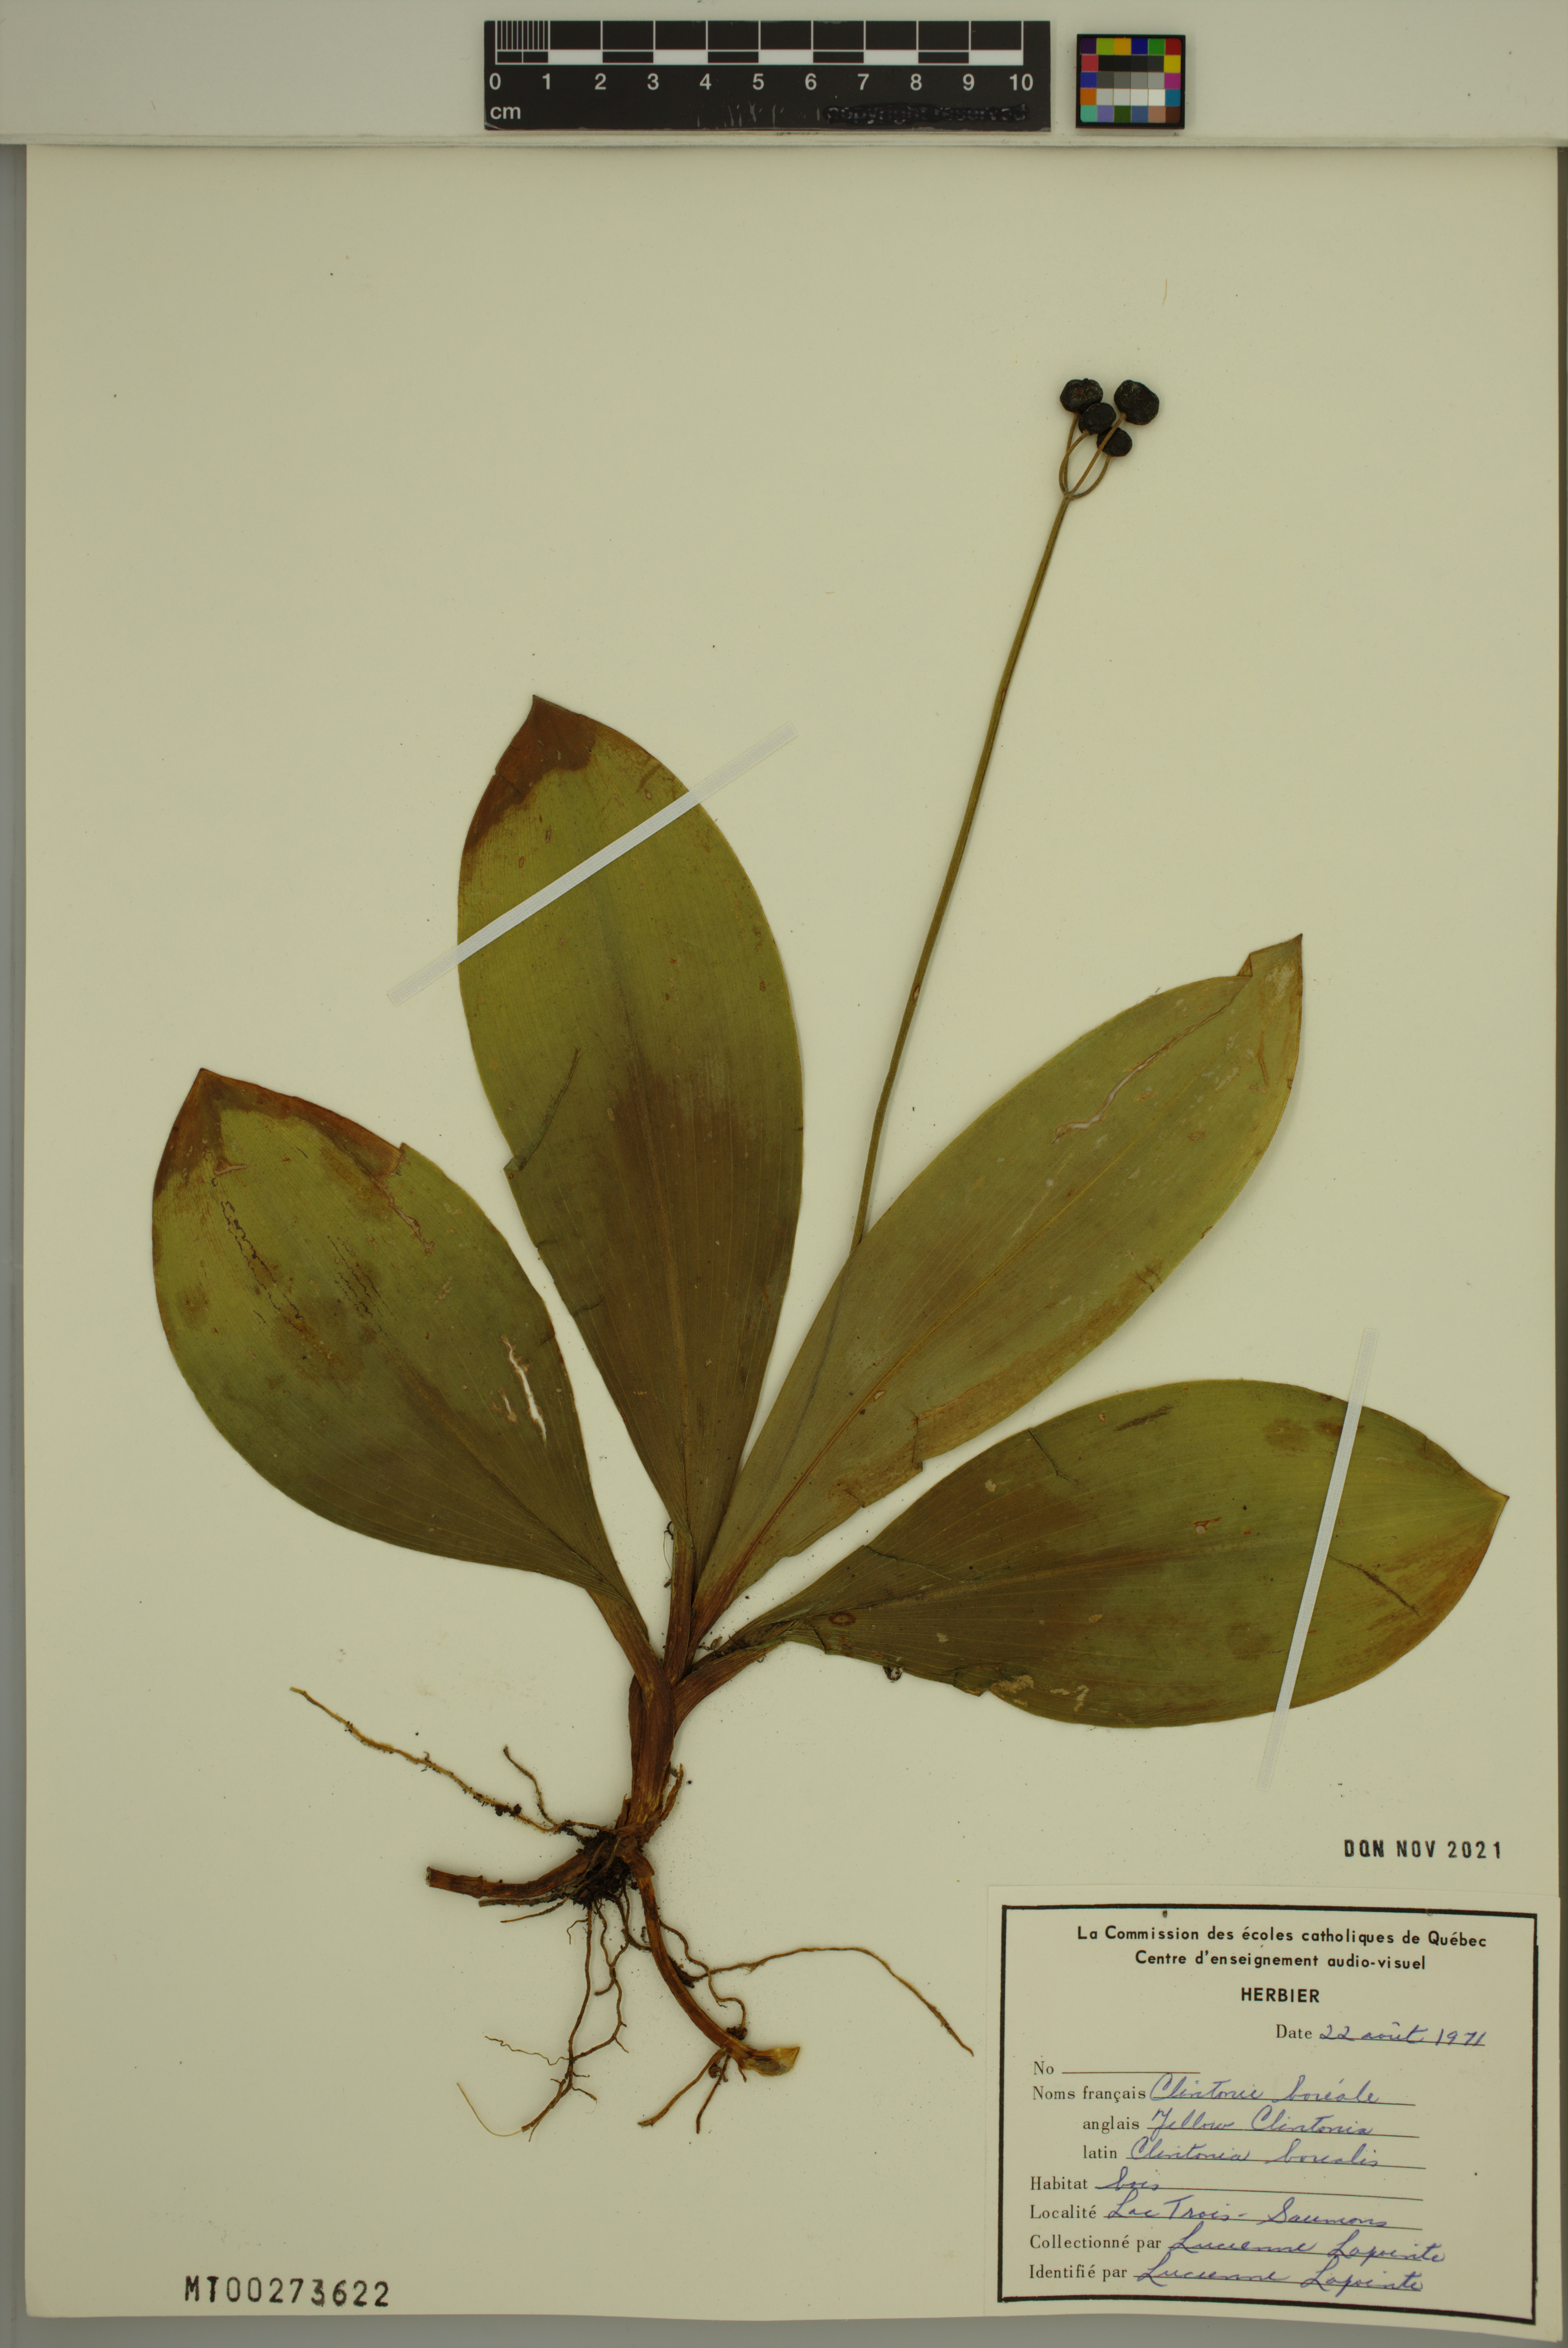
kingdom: Plantae
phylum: Tracheophyta
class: Liliopsida
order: Liliales
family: Liliaceae
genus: Clintonia
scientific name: Clintonia borealis
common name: Yellow clintonia
